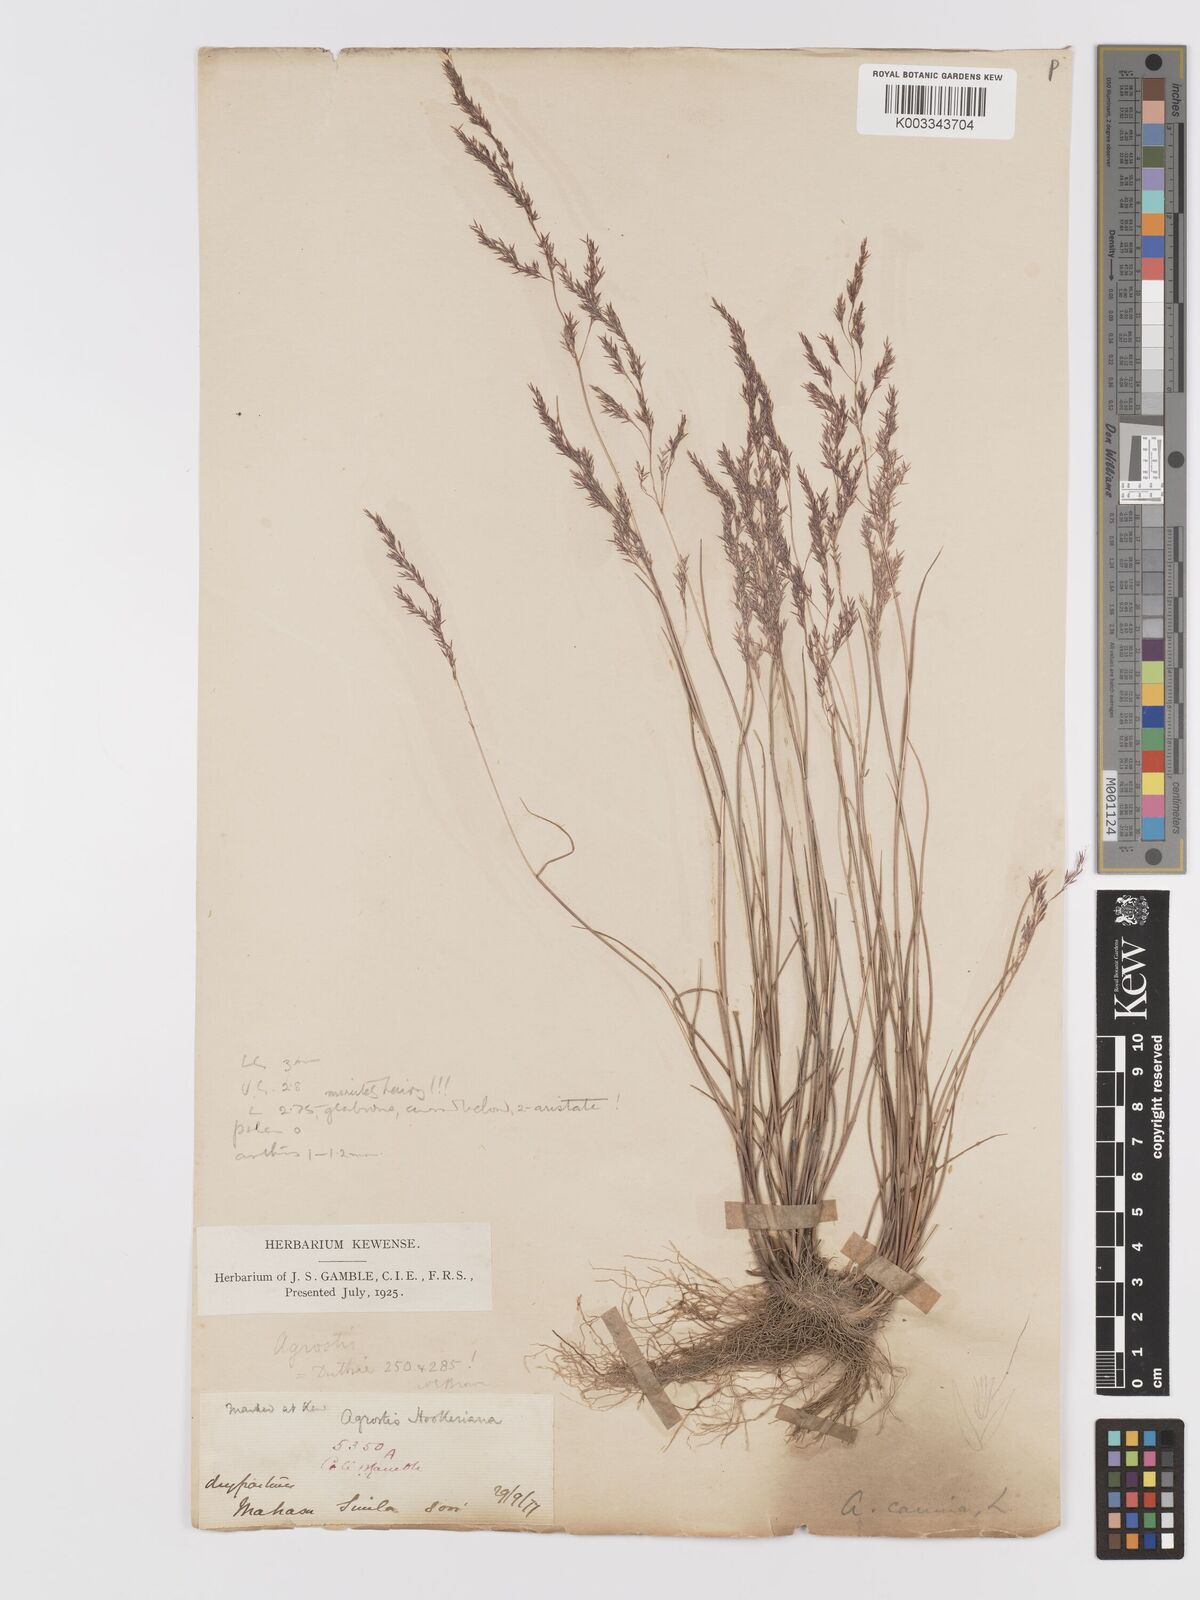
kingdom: Plantae
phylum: Tracheophyta
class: Liliopsida
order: Poales
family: Poaceae
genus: Agrostis
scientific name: Agrostis pilosula
